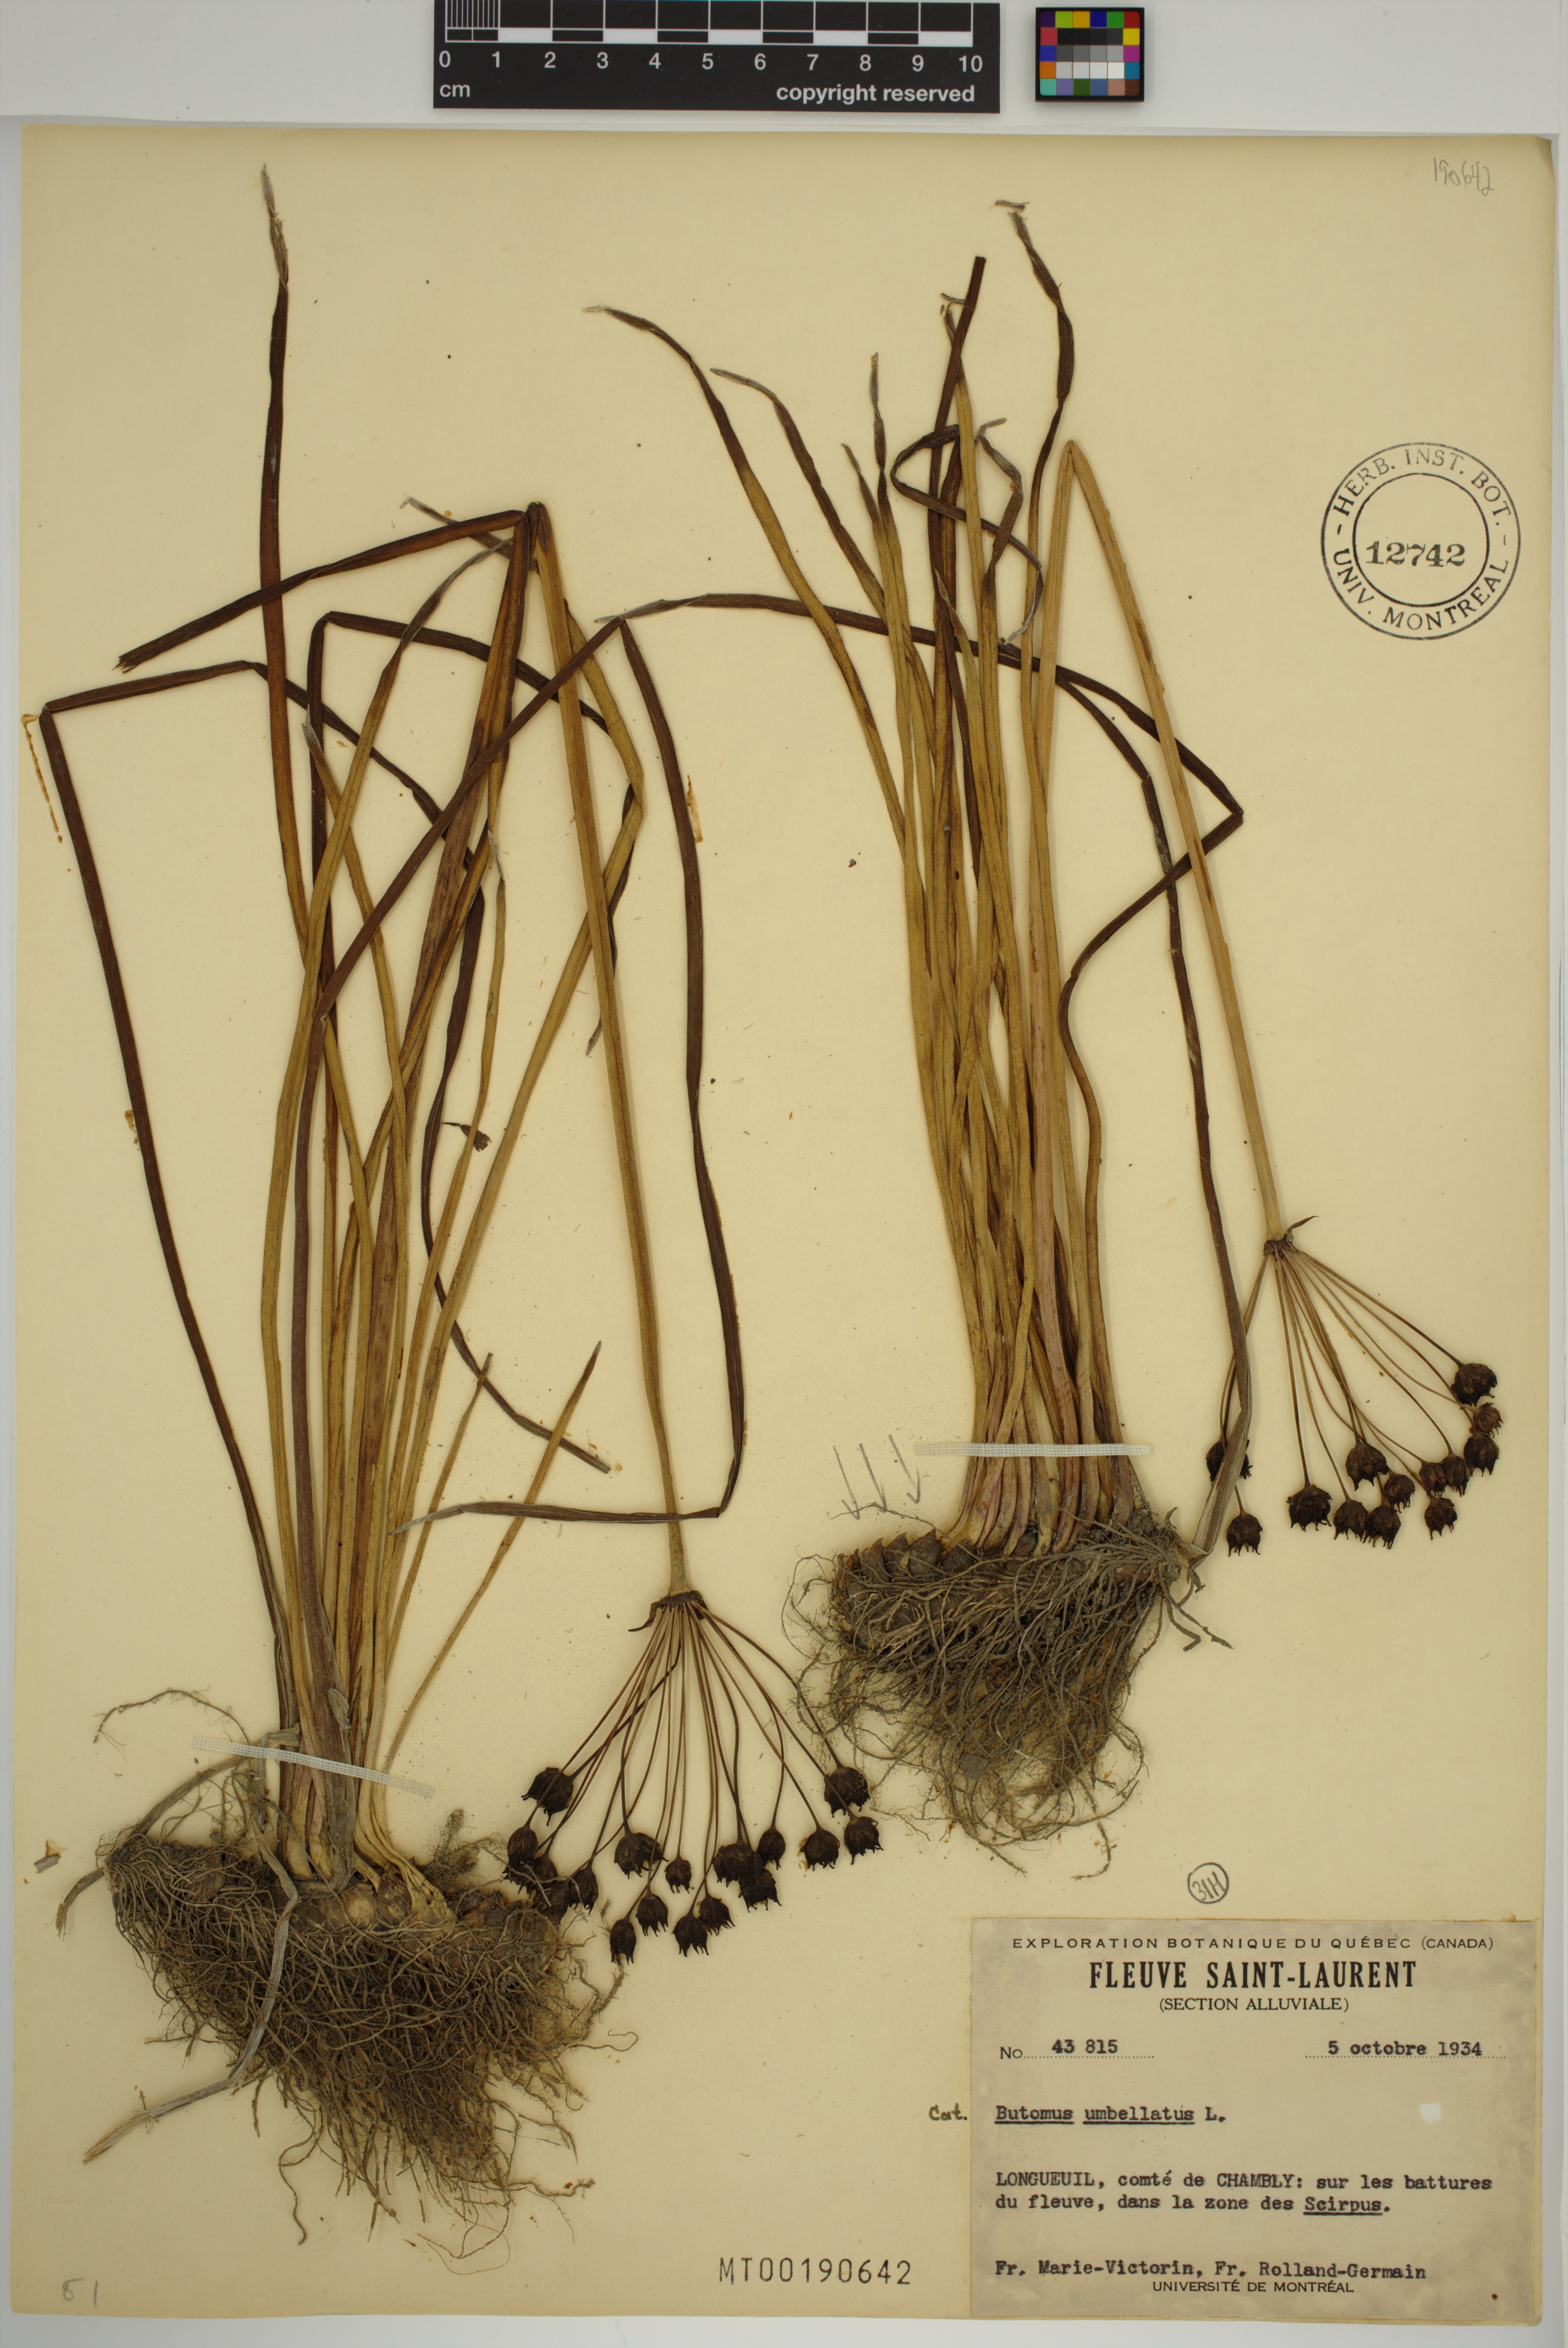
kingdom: Plantae
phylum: Tracheophyta
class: Liliopsida
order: Alismatales
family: Butomaceae
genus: Butomus
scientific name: Butomus umbellatus
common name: Flowering-rush
